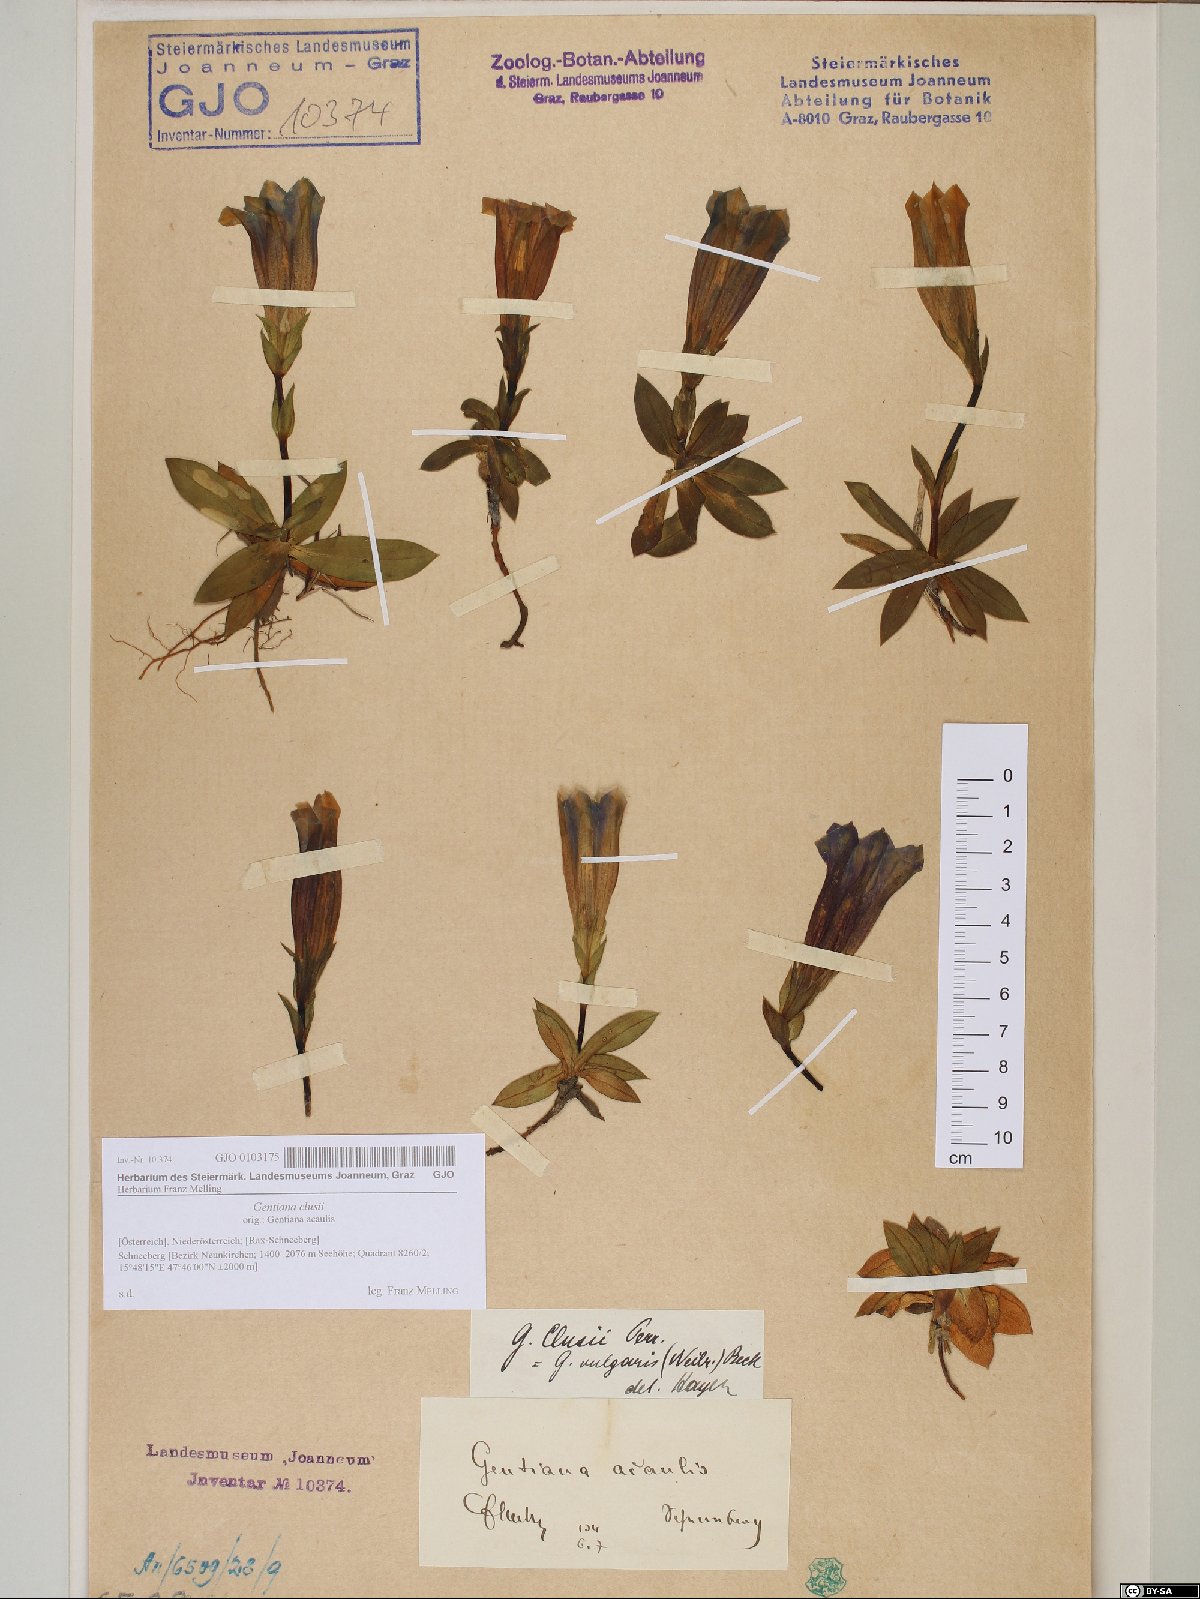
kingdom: Plantae
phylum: Tracheophyta
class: Magnoliopsida
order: Gentianales
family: Gentianaceae
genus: Gentiana
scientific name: Gentiana clusii
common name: Trumpet gentian
